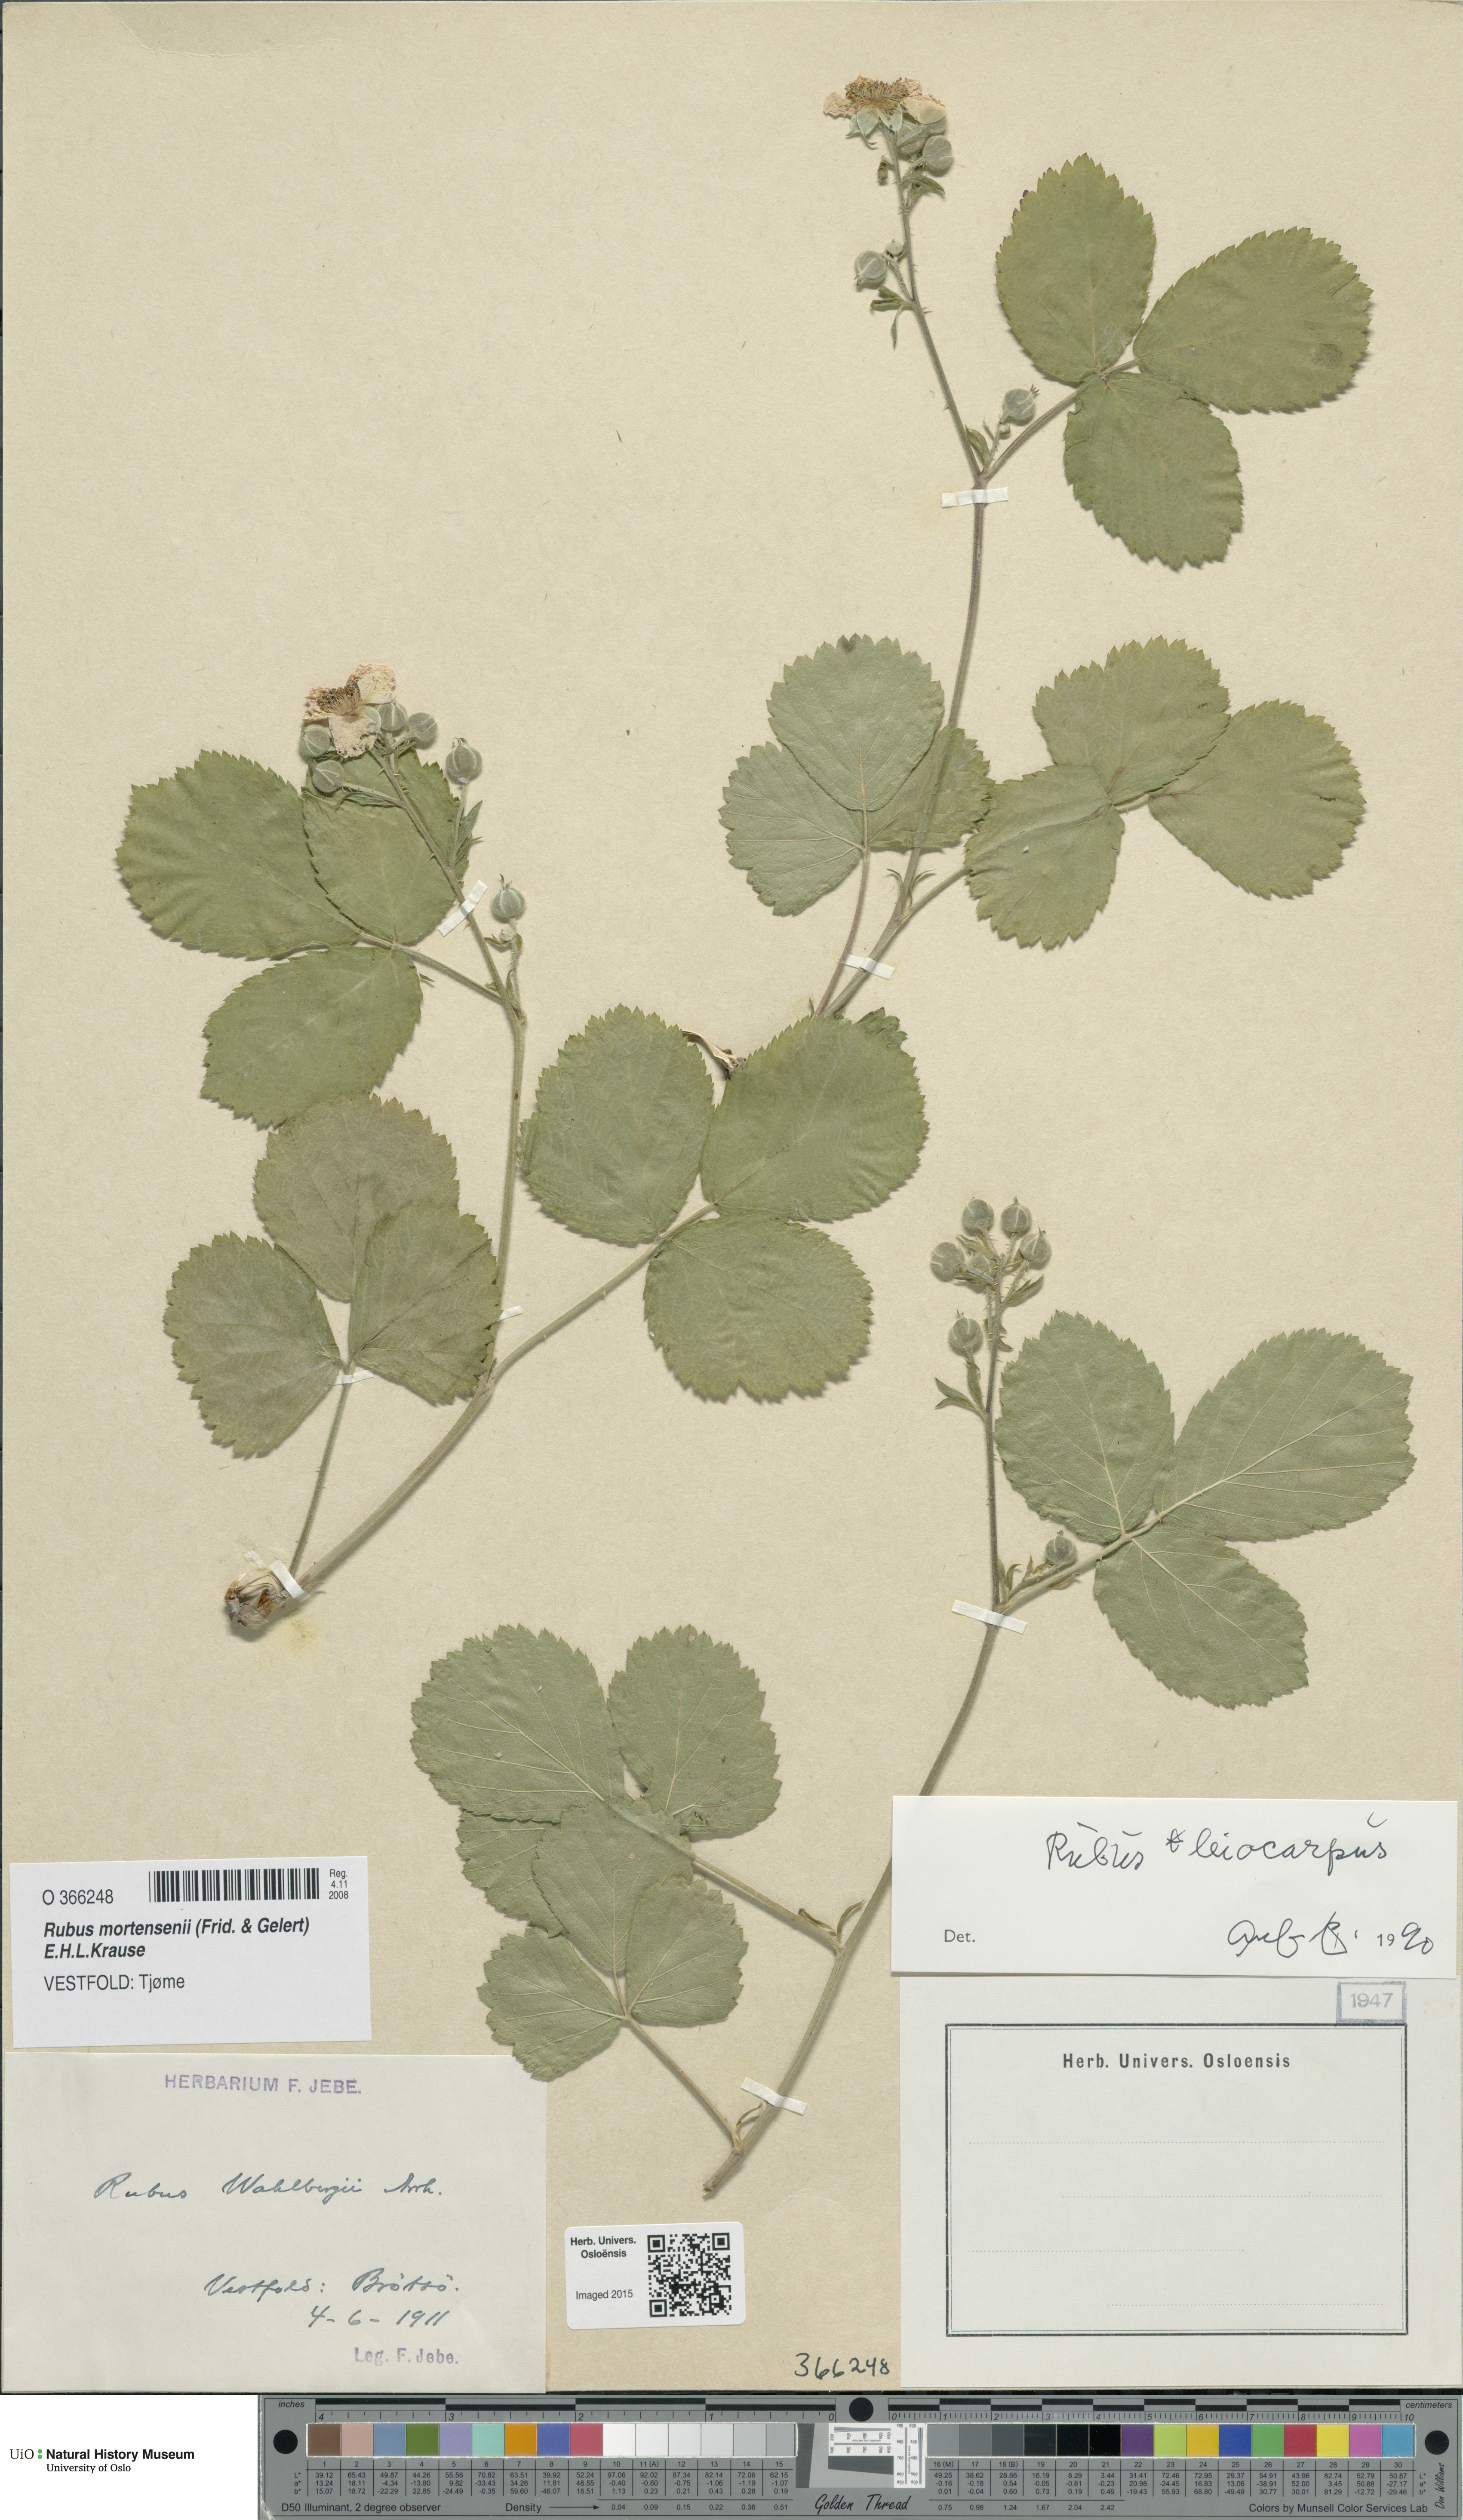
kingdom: Plantae
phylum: Tracheophyta
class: Magnoliopsida
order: Rosales
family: Rosaceae
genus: Rubus
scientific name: Rubus mortensenii
